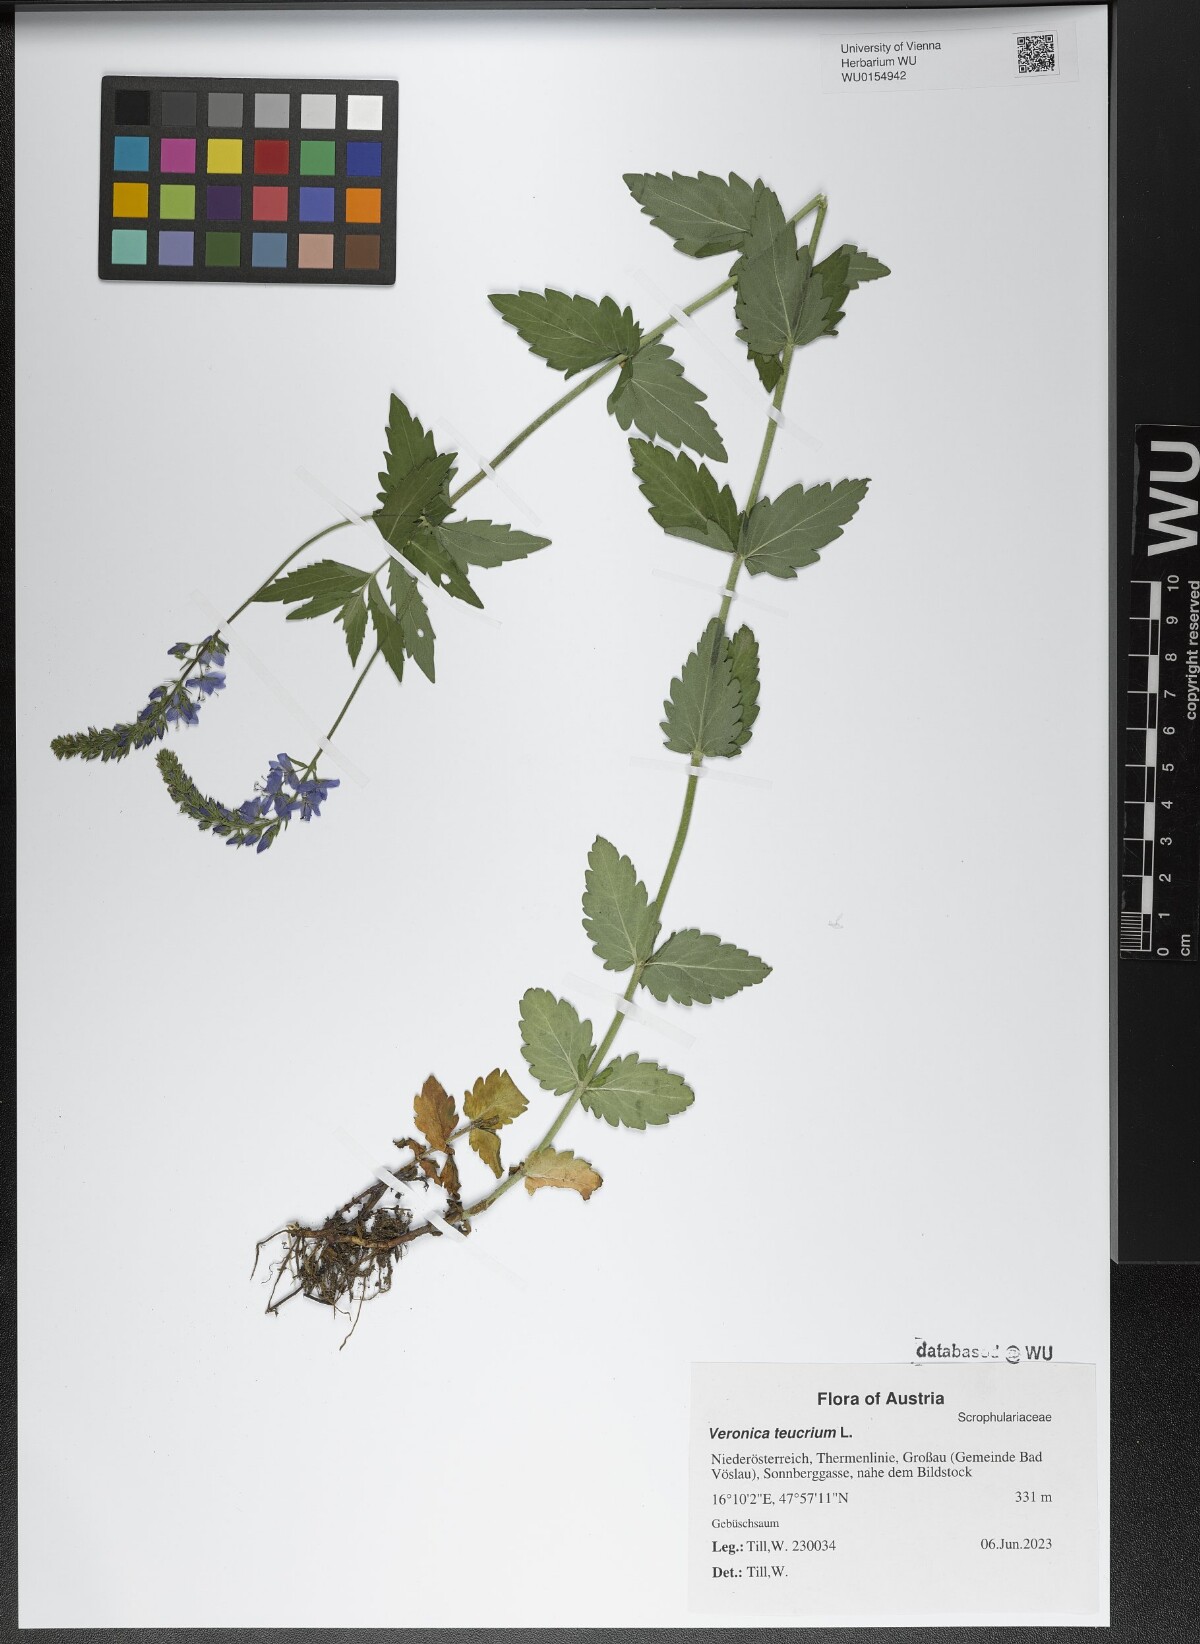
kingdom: Plantae
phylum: Tracheophyta
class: Magnoliopsida
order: Lamiales
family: Plantaginaceae
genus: Veronica
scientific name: Veronica teucrium
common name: Large speedwell
